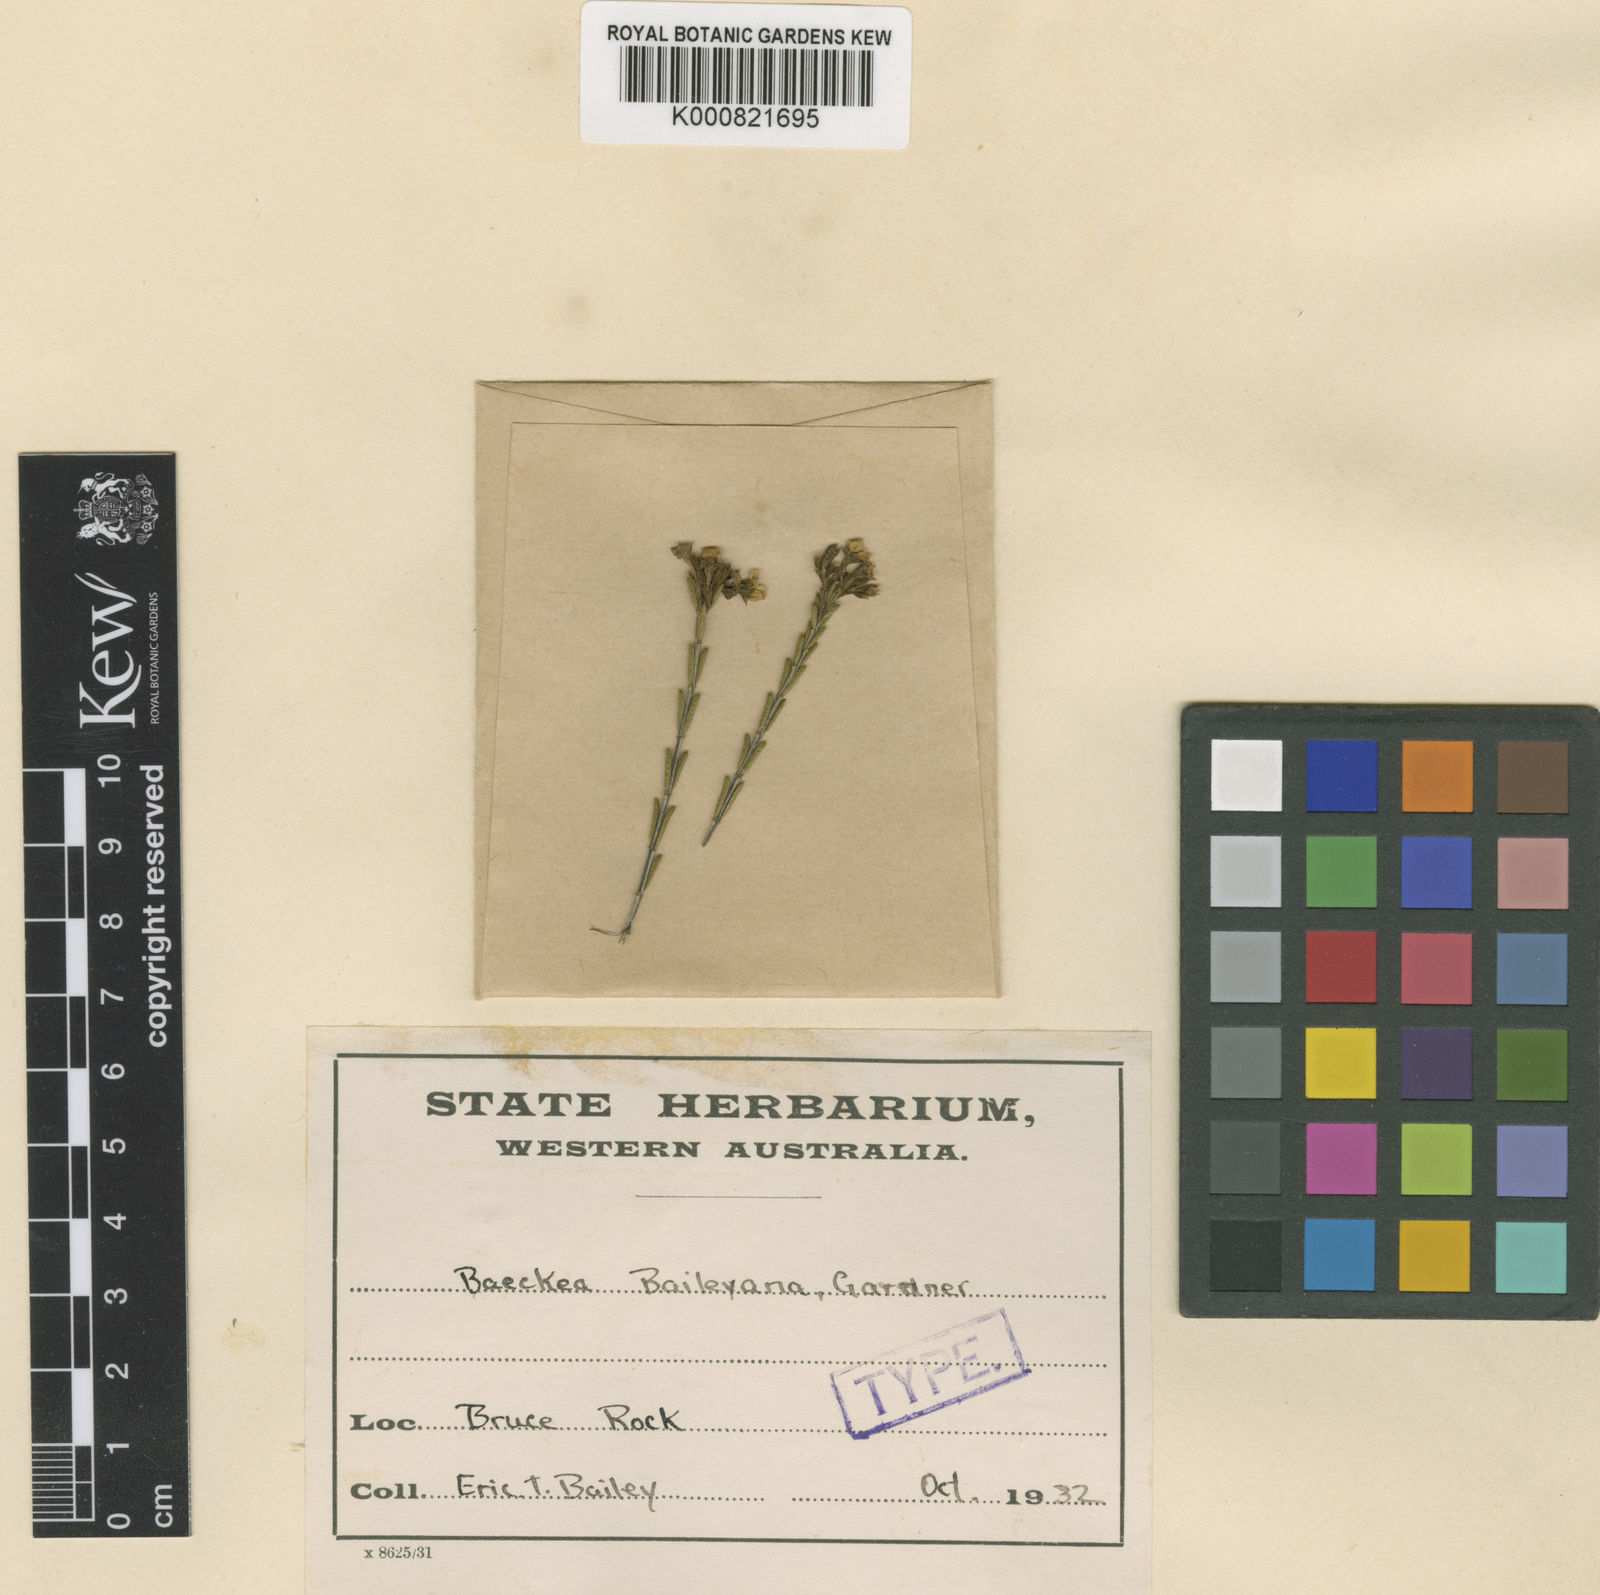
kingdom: Plantae
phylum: Tracheophyta
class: Magnoliopsida
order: Myrtales
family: Myrtaceae
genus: Baeckea
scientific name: Baeckea baileyana
